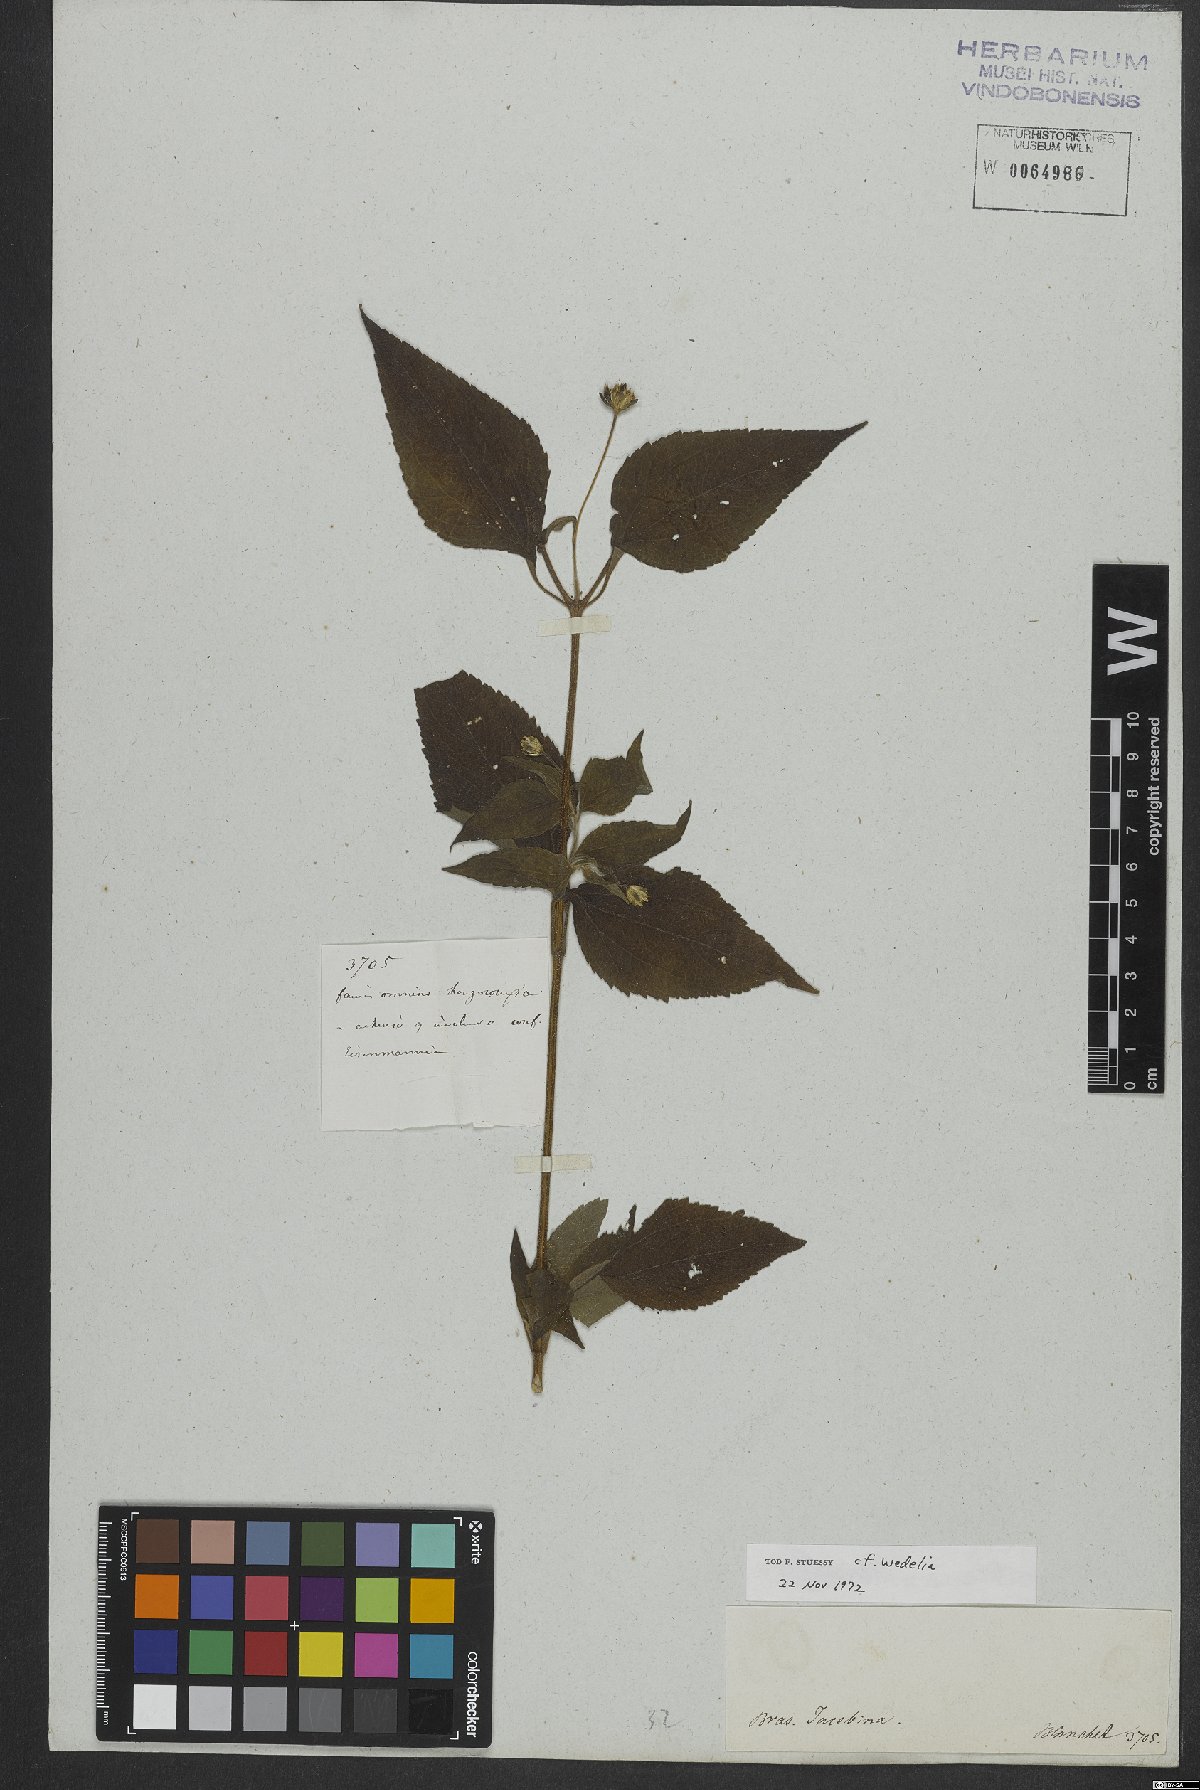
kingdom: Plantae
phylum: Tracheophyta
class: Magnoliopsida
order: Asterales
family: Asteraceae
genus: Wedelia
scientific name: Wedelia
